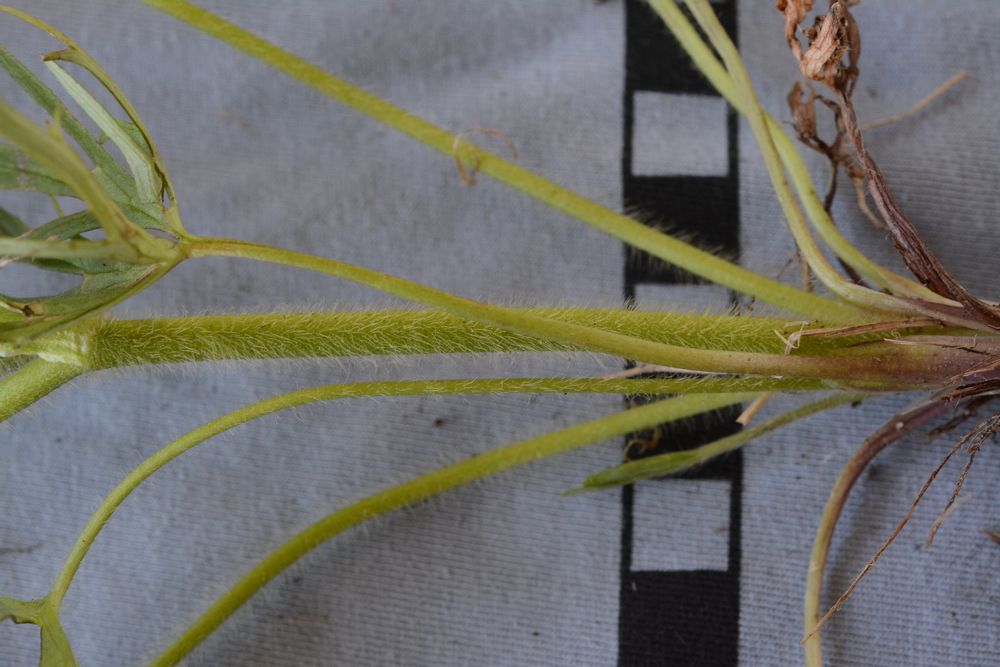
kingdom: Plantae
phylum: Tracheophyta
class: Magnoliopsida
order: Ranunculales
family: Ranunculaceae
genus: Ranunculus
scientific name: Ranunculus polyanthemos
